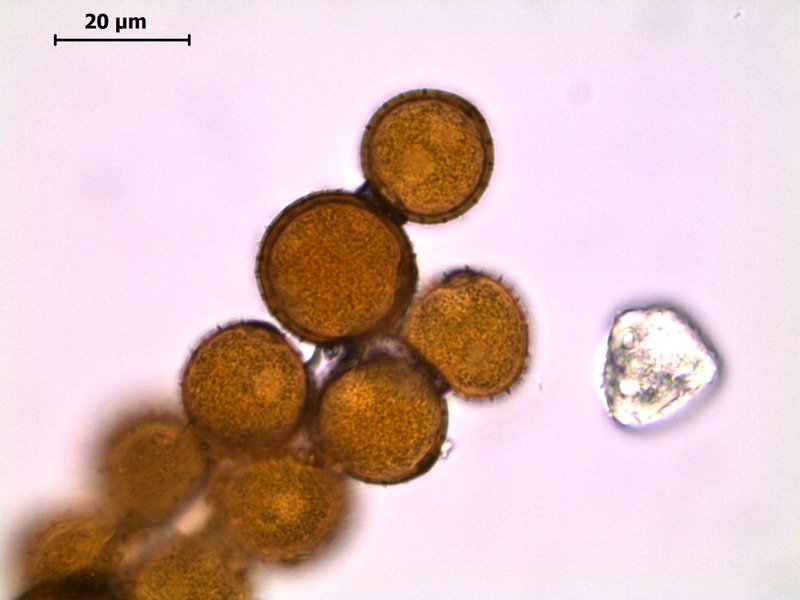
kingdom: Fungi
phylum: Basidiomycota
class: Pucciniomycetes
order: Pucciniales
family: Pucciniaceae
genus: Puccinia
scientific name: Puccinia punctata
